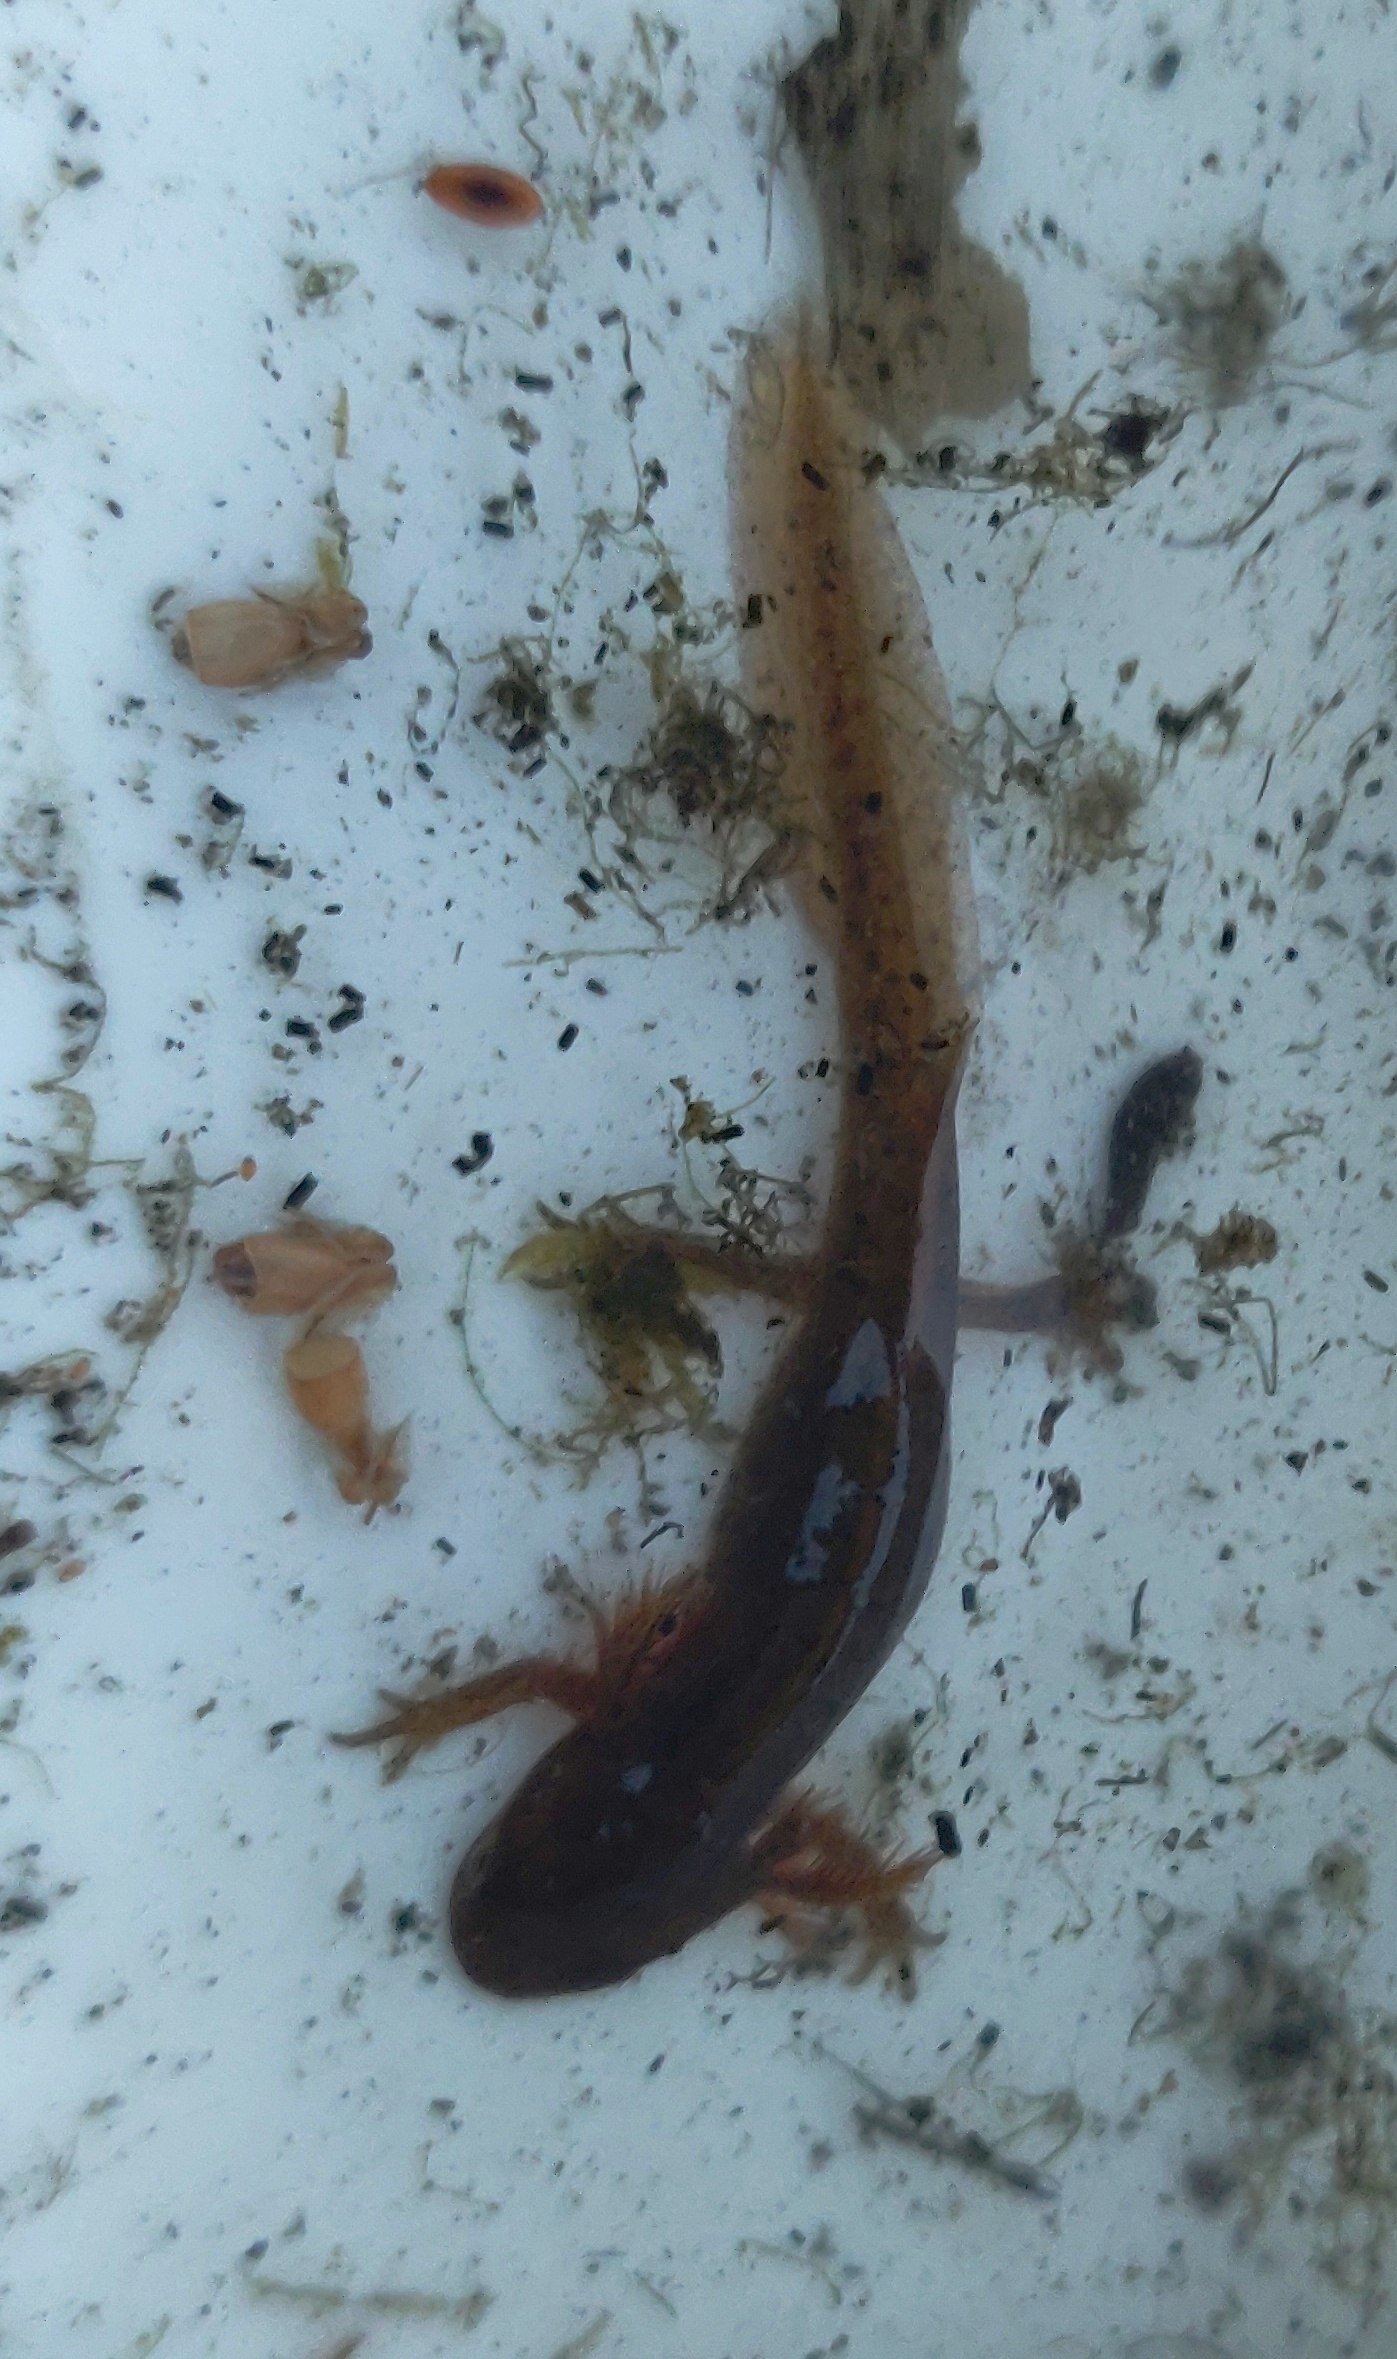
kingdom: Animalia
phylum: Chordata
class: Amphibia
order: Caudata
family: Salamandridae
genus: Lissotriton
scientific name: Lissotriton vulgaris
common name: Lille vandsalamander
